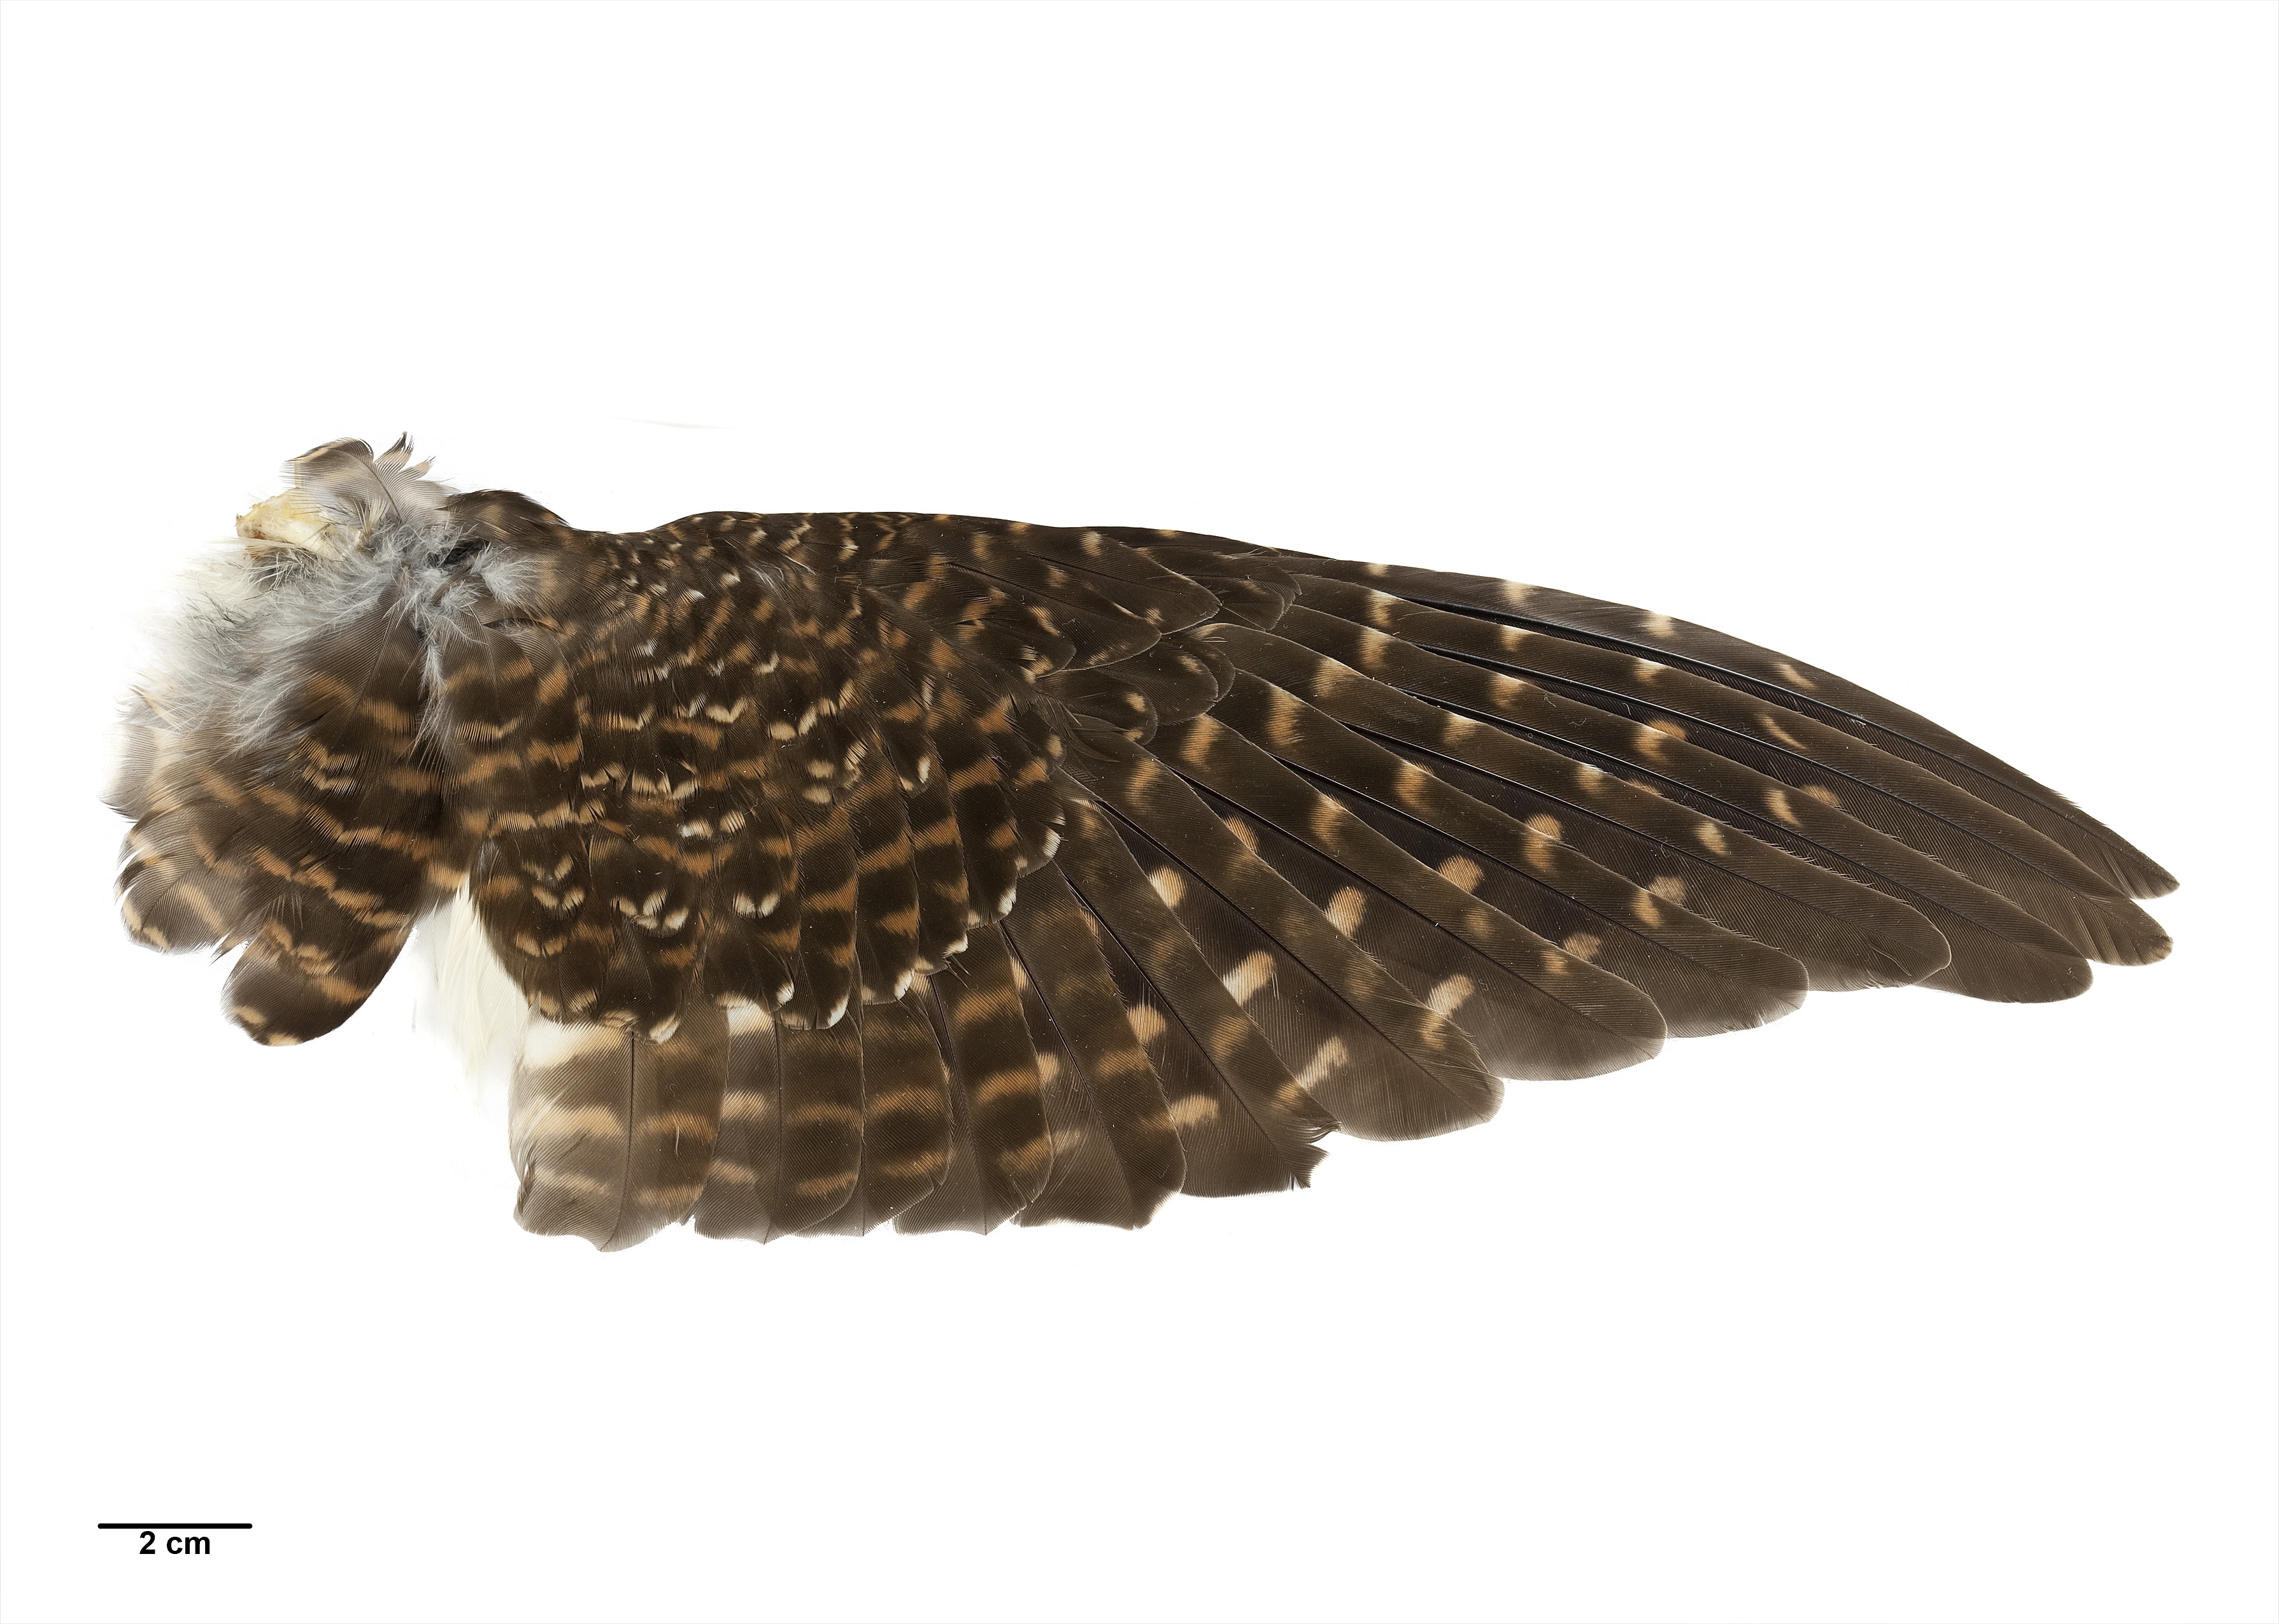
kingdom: Animalia
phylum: Chordata
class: Aves
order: Cuculiformes
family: Cuculidae
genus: Urodynamis
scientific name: Urodynamis taitensis
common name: Long-tailed koel
